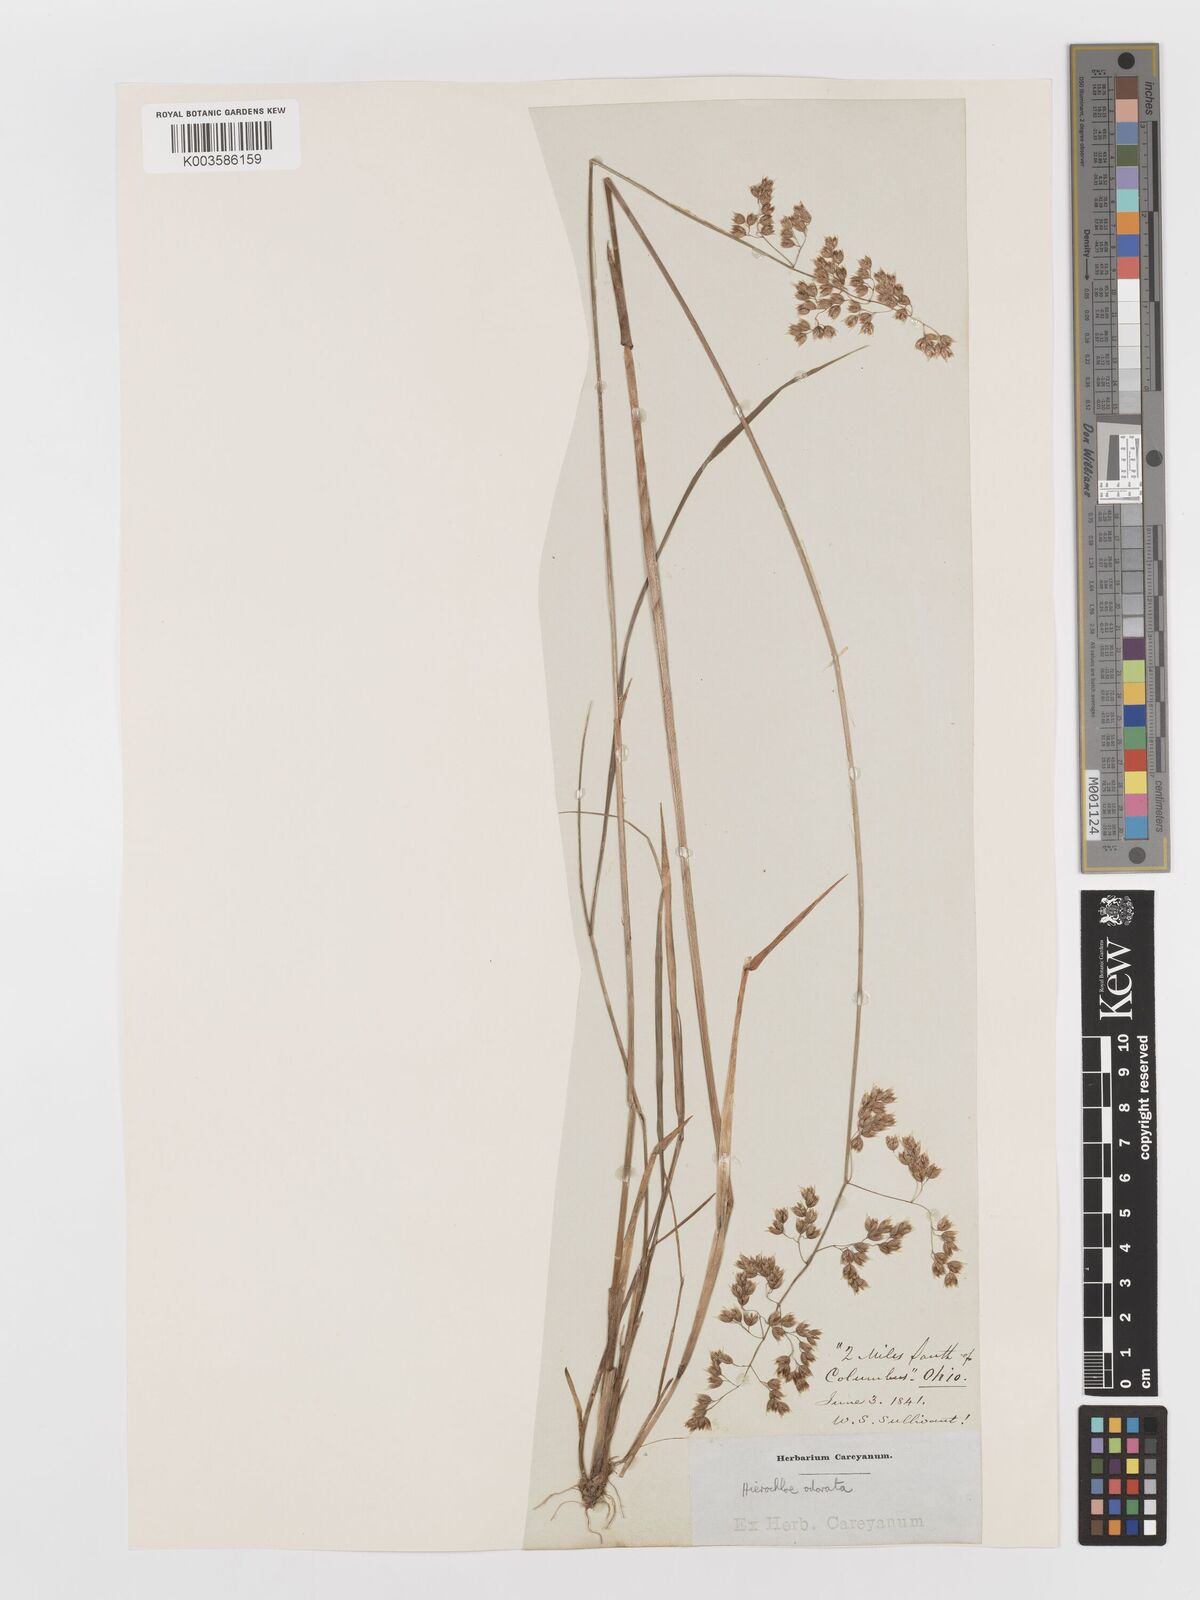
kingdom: Plantae
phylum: Tracheophyta
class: Liliopsida
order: Poales
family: Poaceae
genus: Anthoxanthum
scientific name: Anthoxanthum nitens
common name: Holy grass
